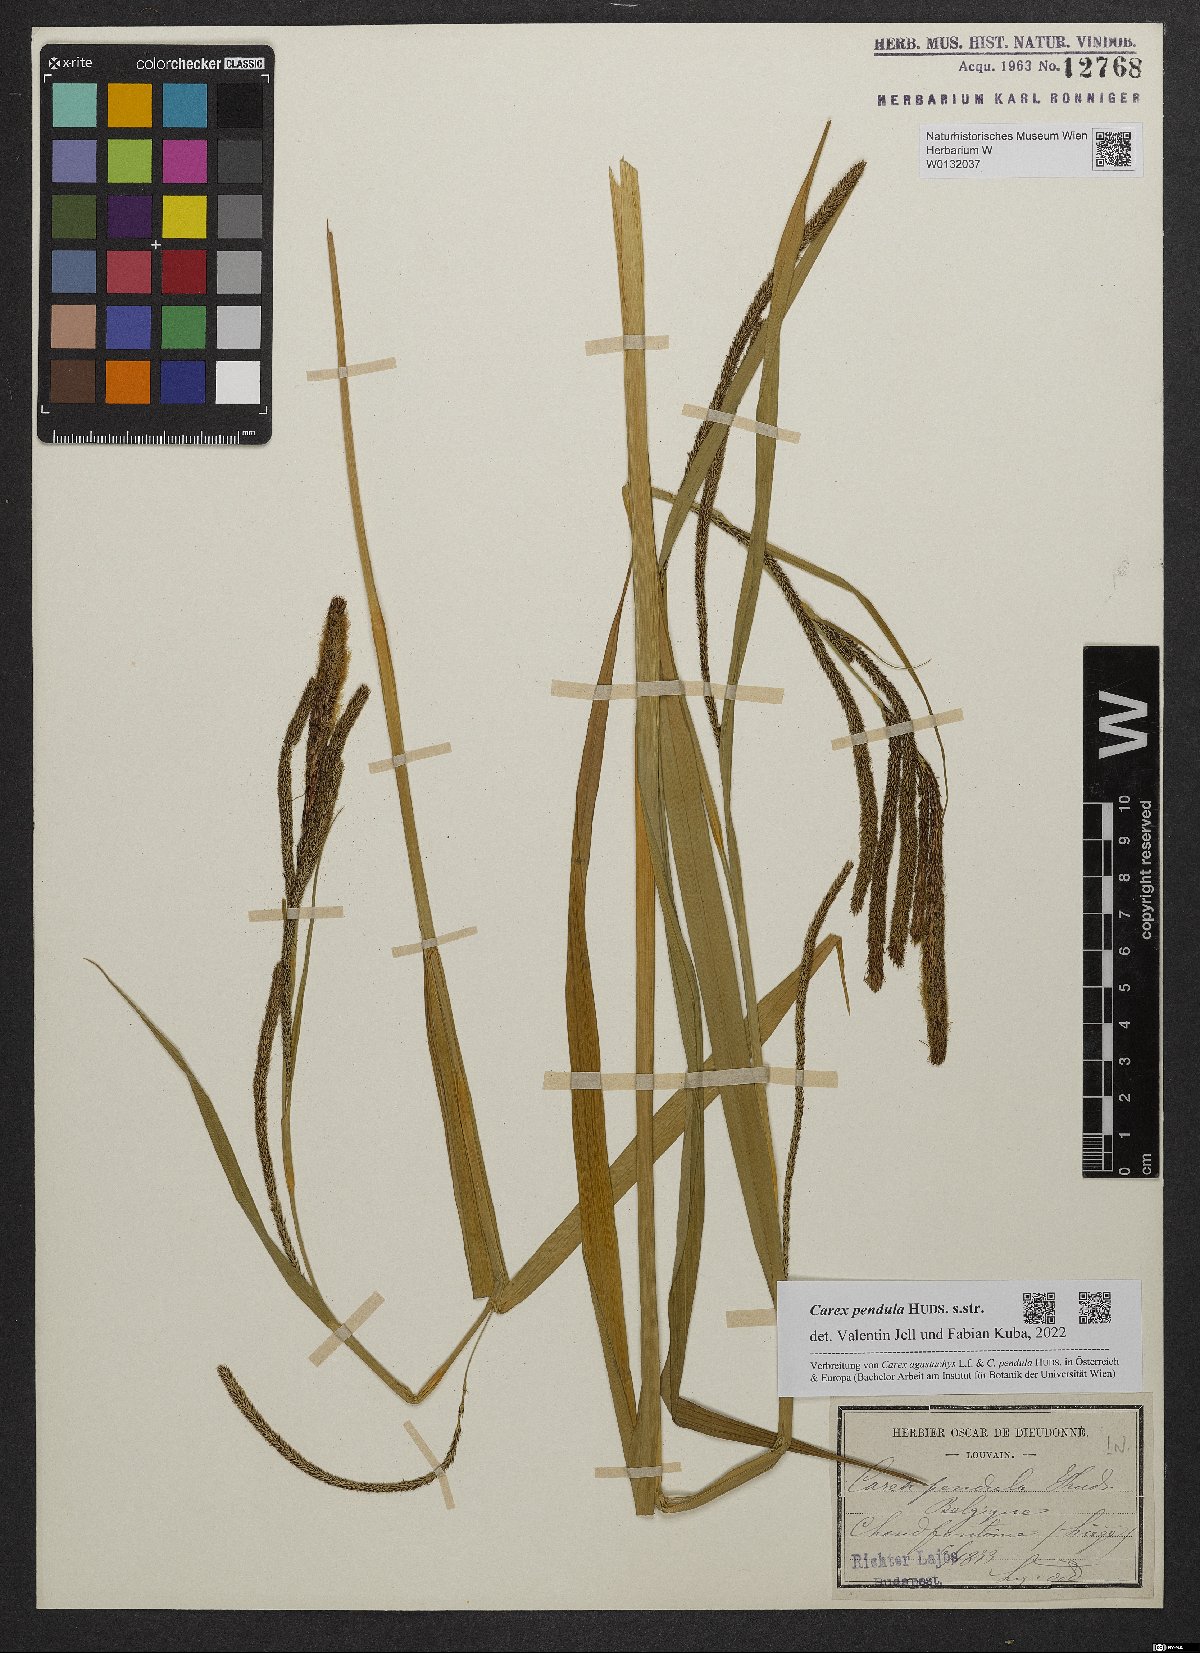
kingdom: Plantae
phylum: Tracheophyta
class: Liliopsida
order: Poales
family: Cyperaceae
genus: Carex
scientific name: Carex pendula
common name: Pendulous sedge
